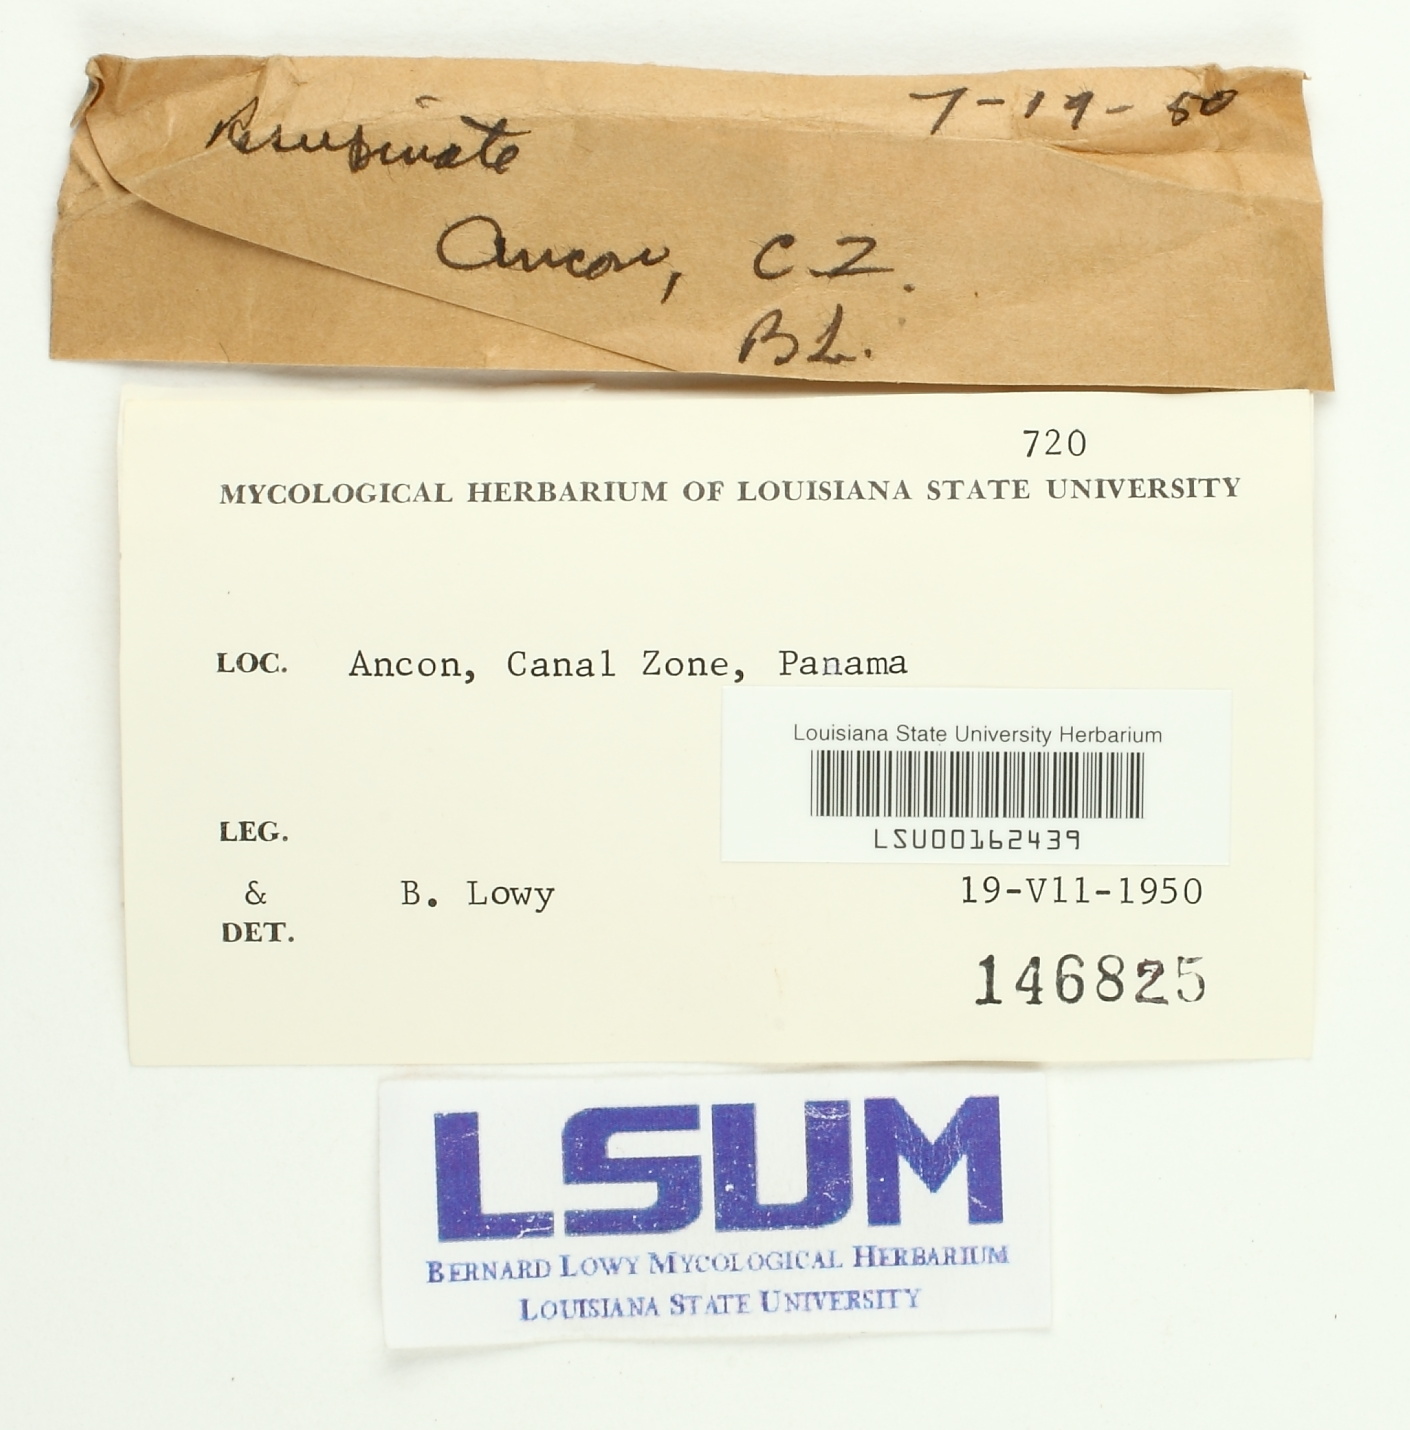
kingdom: Fungi
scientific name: Fungi
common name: Fungi
